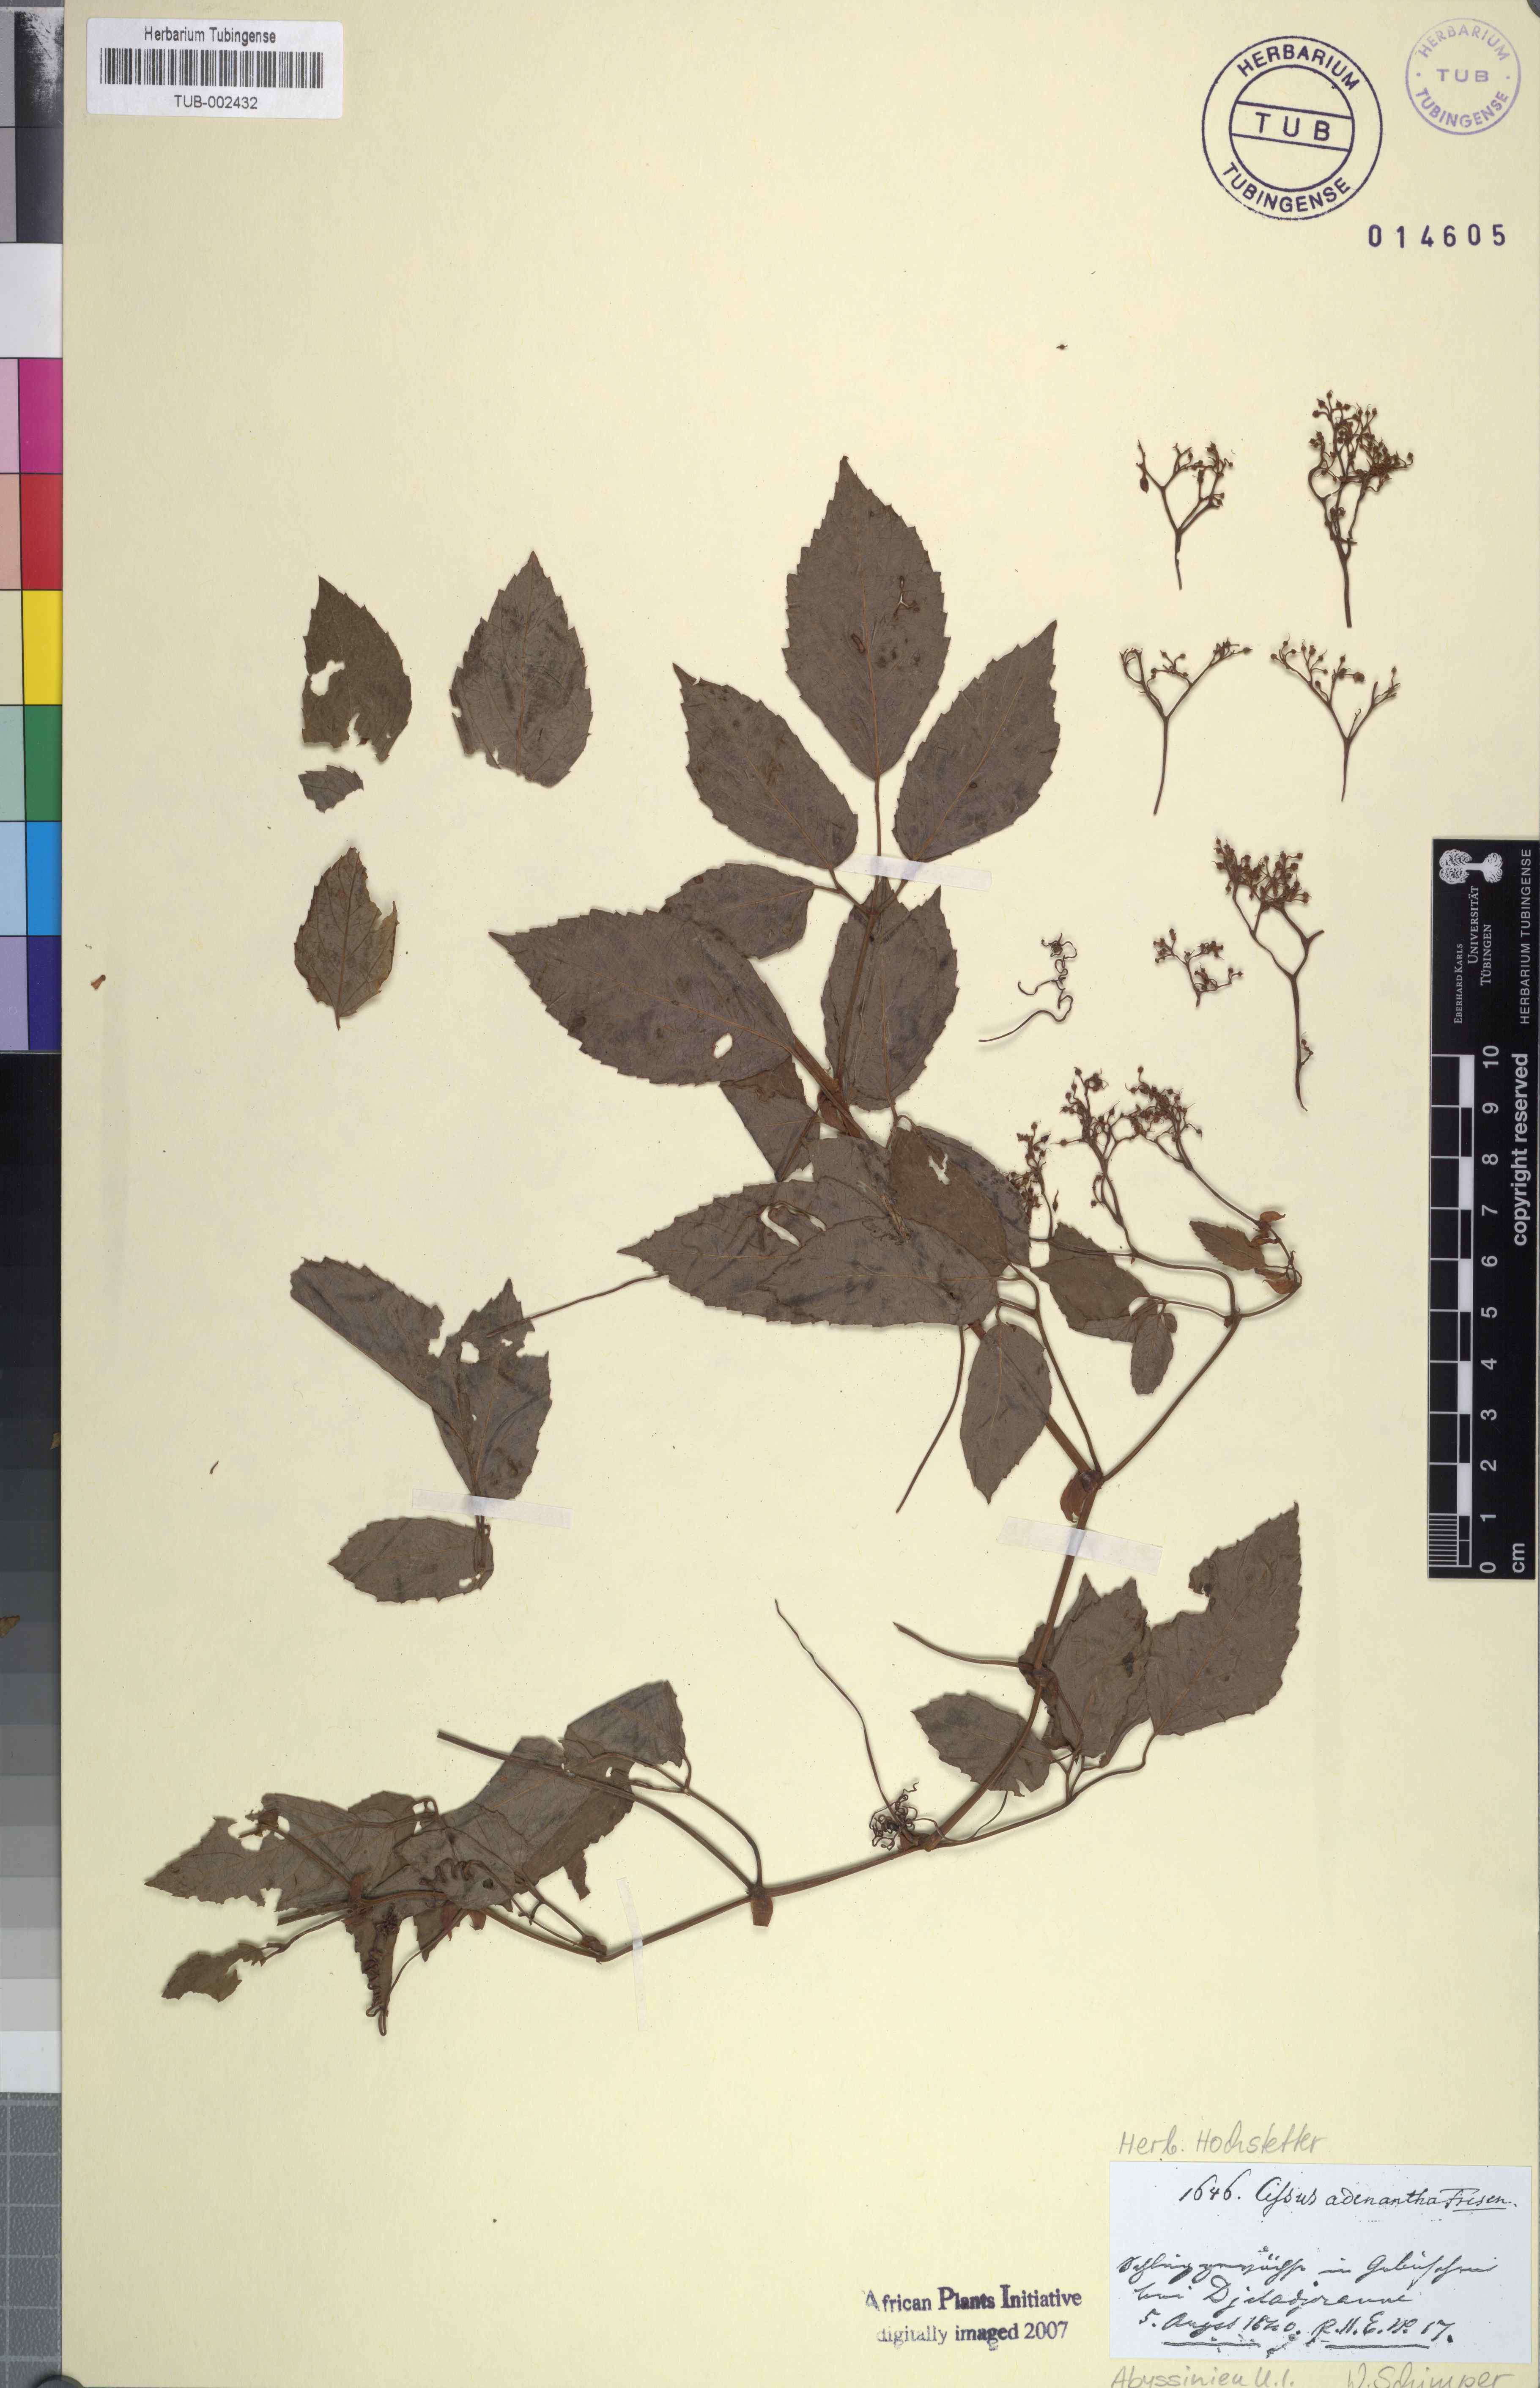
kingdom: Plantae
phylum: Tracheophyta
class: Magnoliopsida
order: Vitales
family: Vitaceae
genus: Cyphostemma
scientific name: Cyphostemma adenanthum
